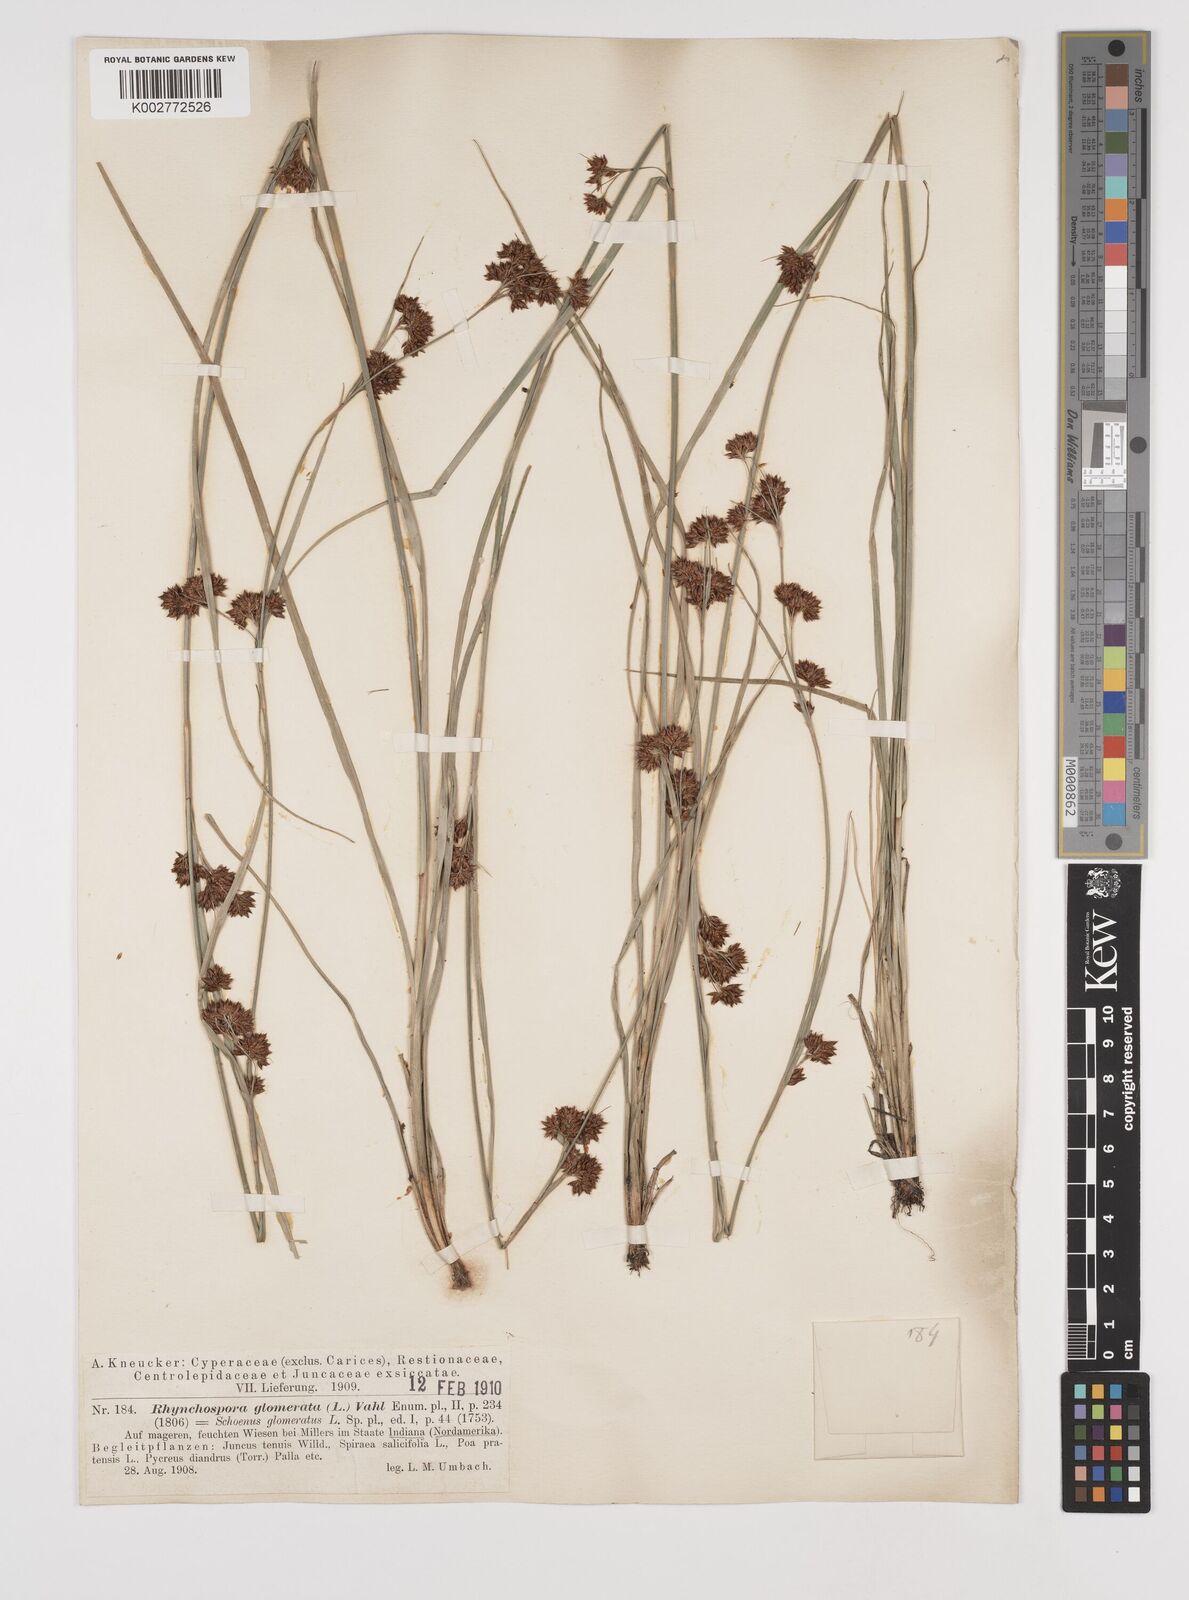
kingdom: Plantae
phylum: Tracheophyta
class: Liliopsida
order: Poales
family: Cyperaceae
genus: Rhynchospora
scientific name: Rhynchospora glomerata
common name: Cluster beak sedge
